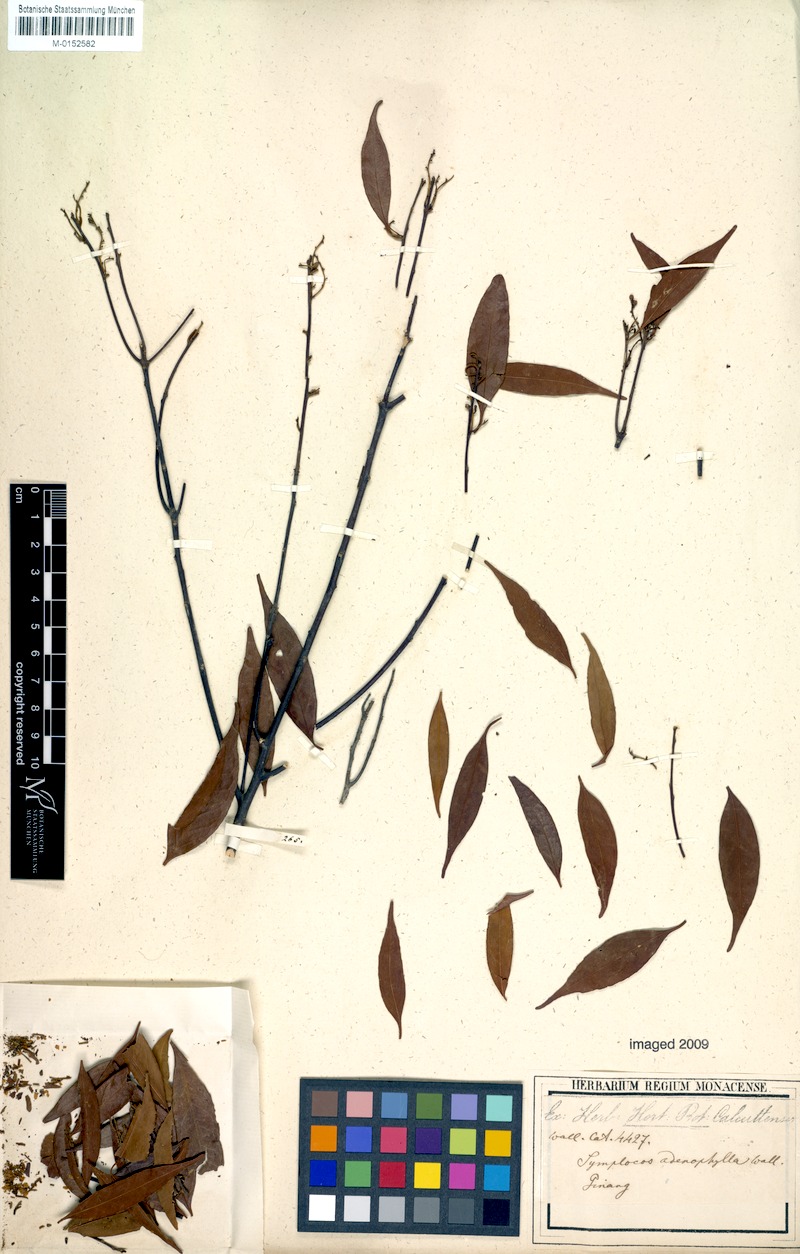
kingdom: Plantae
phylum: Tracheophyta
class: Magnoliopsida
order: Ericales
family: Symplocaceae
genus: Symplocos
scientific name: Symplocos adenophylla
